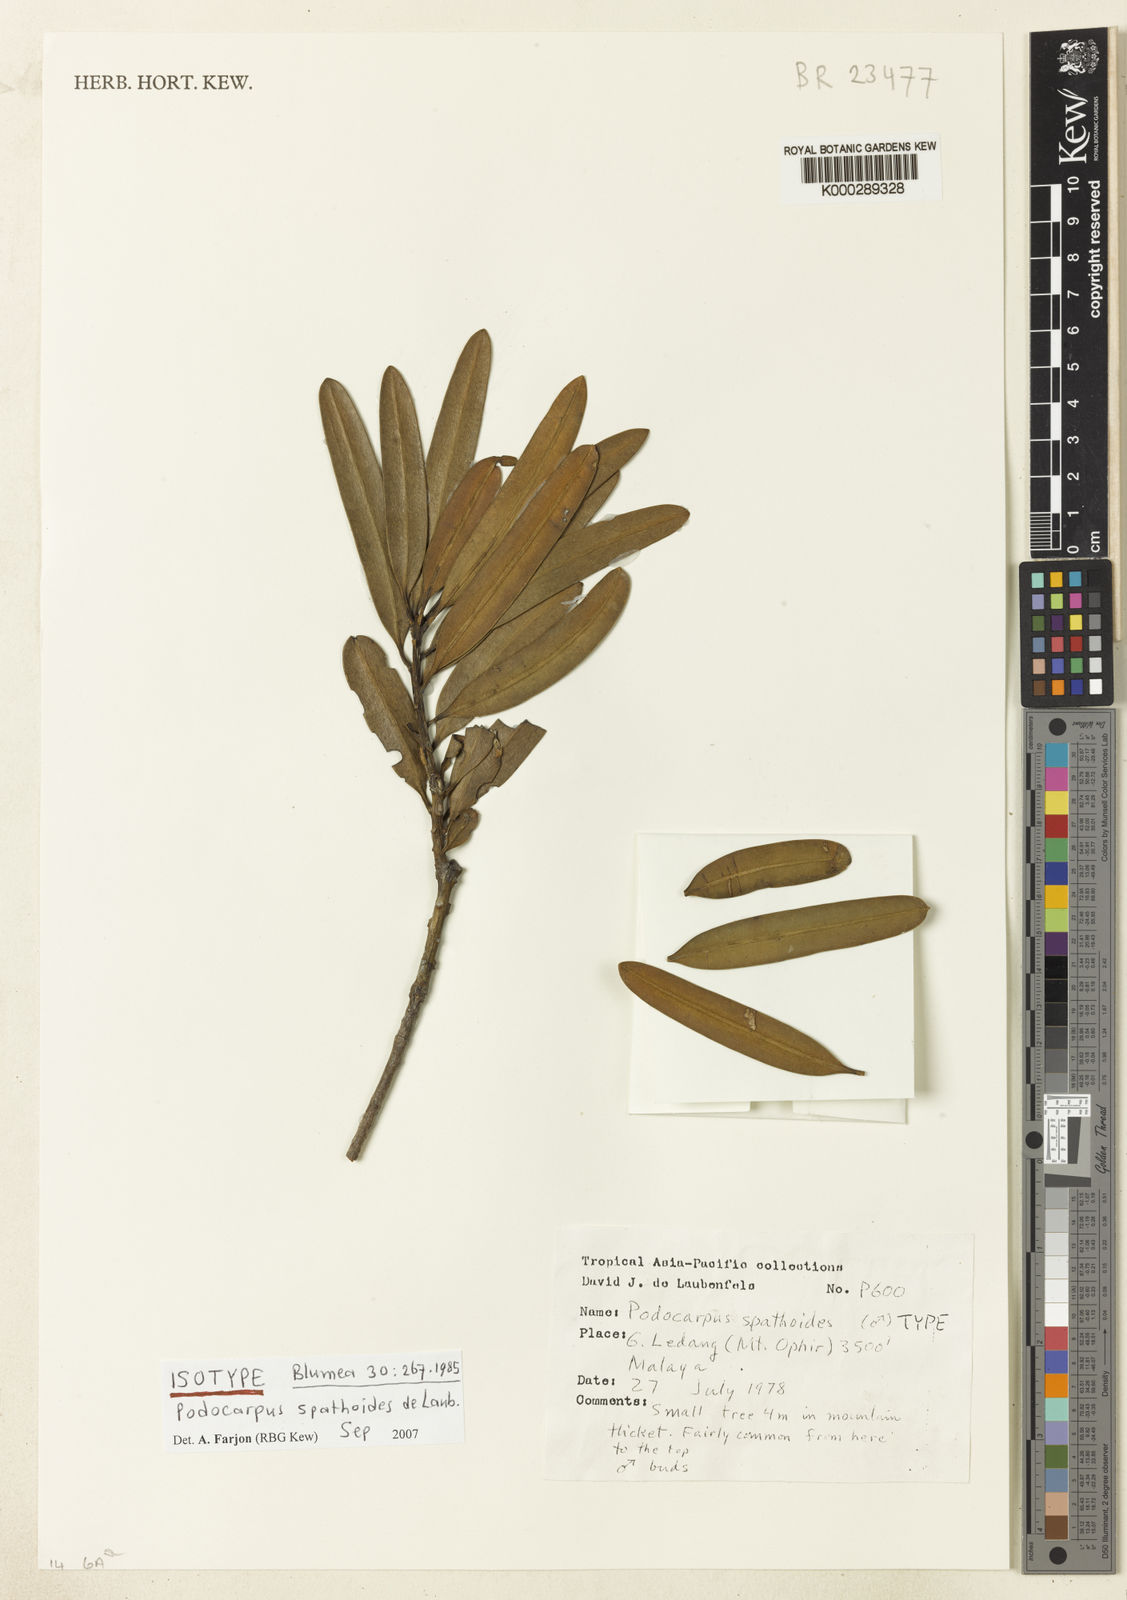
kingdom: Plantae
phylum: Tracheophyta
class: Pinopsida
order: Pinales
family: Podocarpaceae
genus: Podocarpus
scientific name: Podocarpus spathoides
